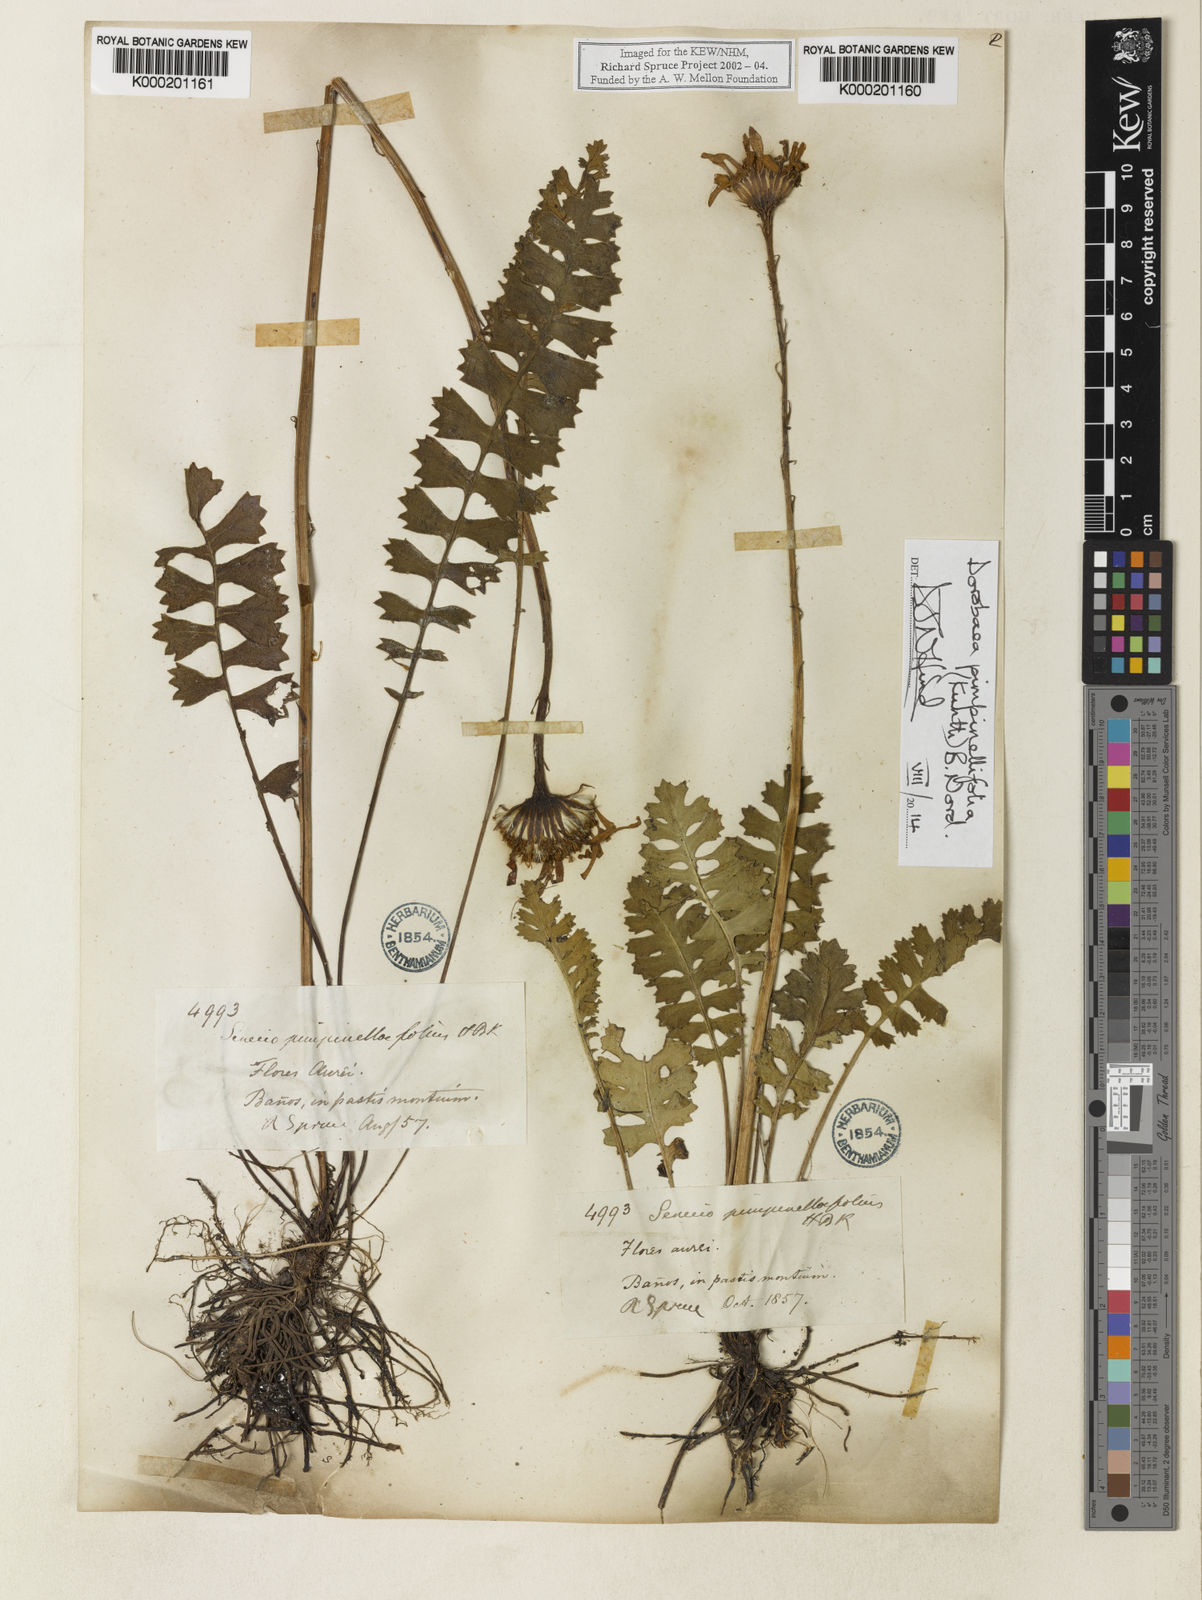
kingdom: Plantae
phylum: Tracheophyta
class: Magnoliopsida
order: Asterales
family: Asteraceae
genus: Dorobaea
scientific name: Dorobaea pimpinellifolia
